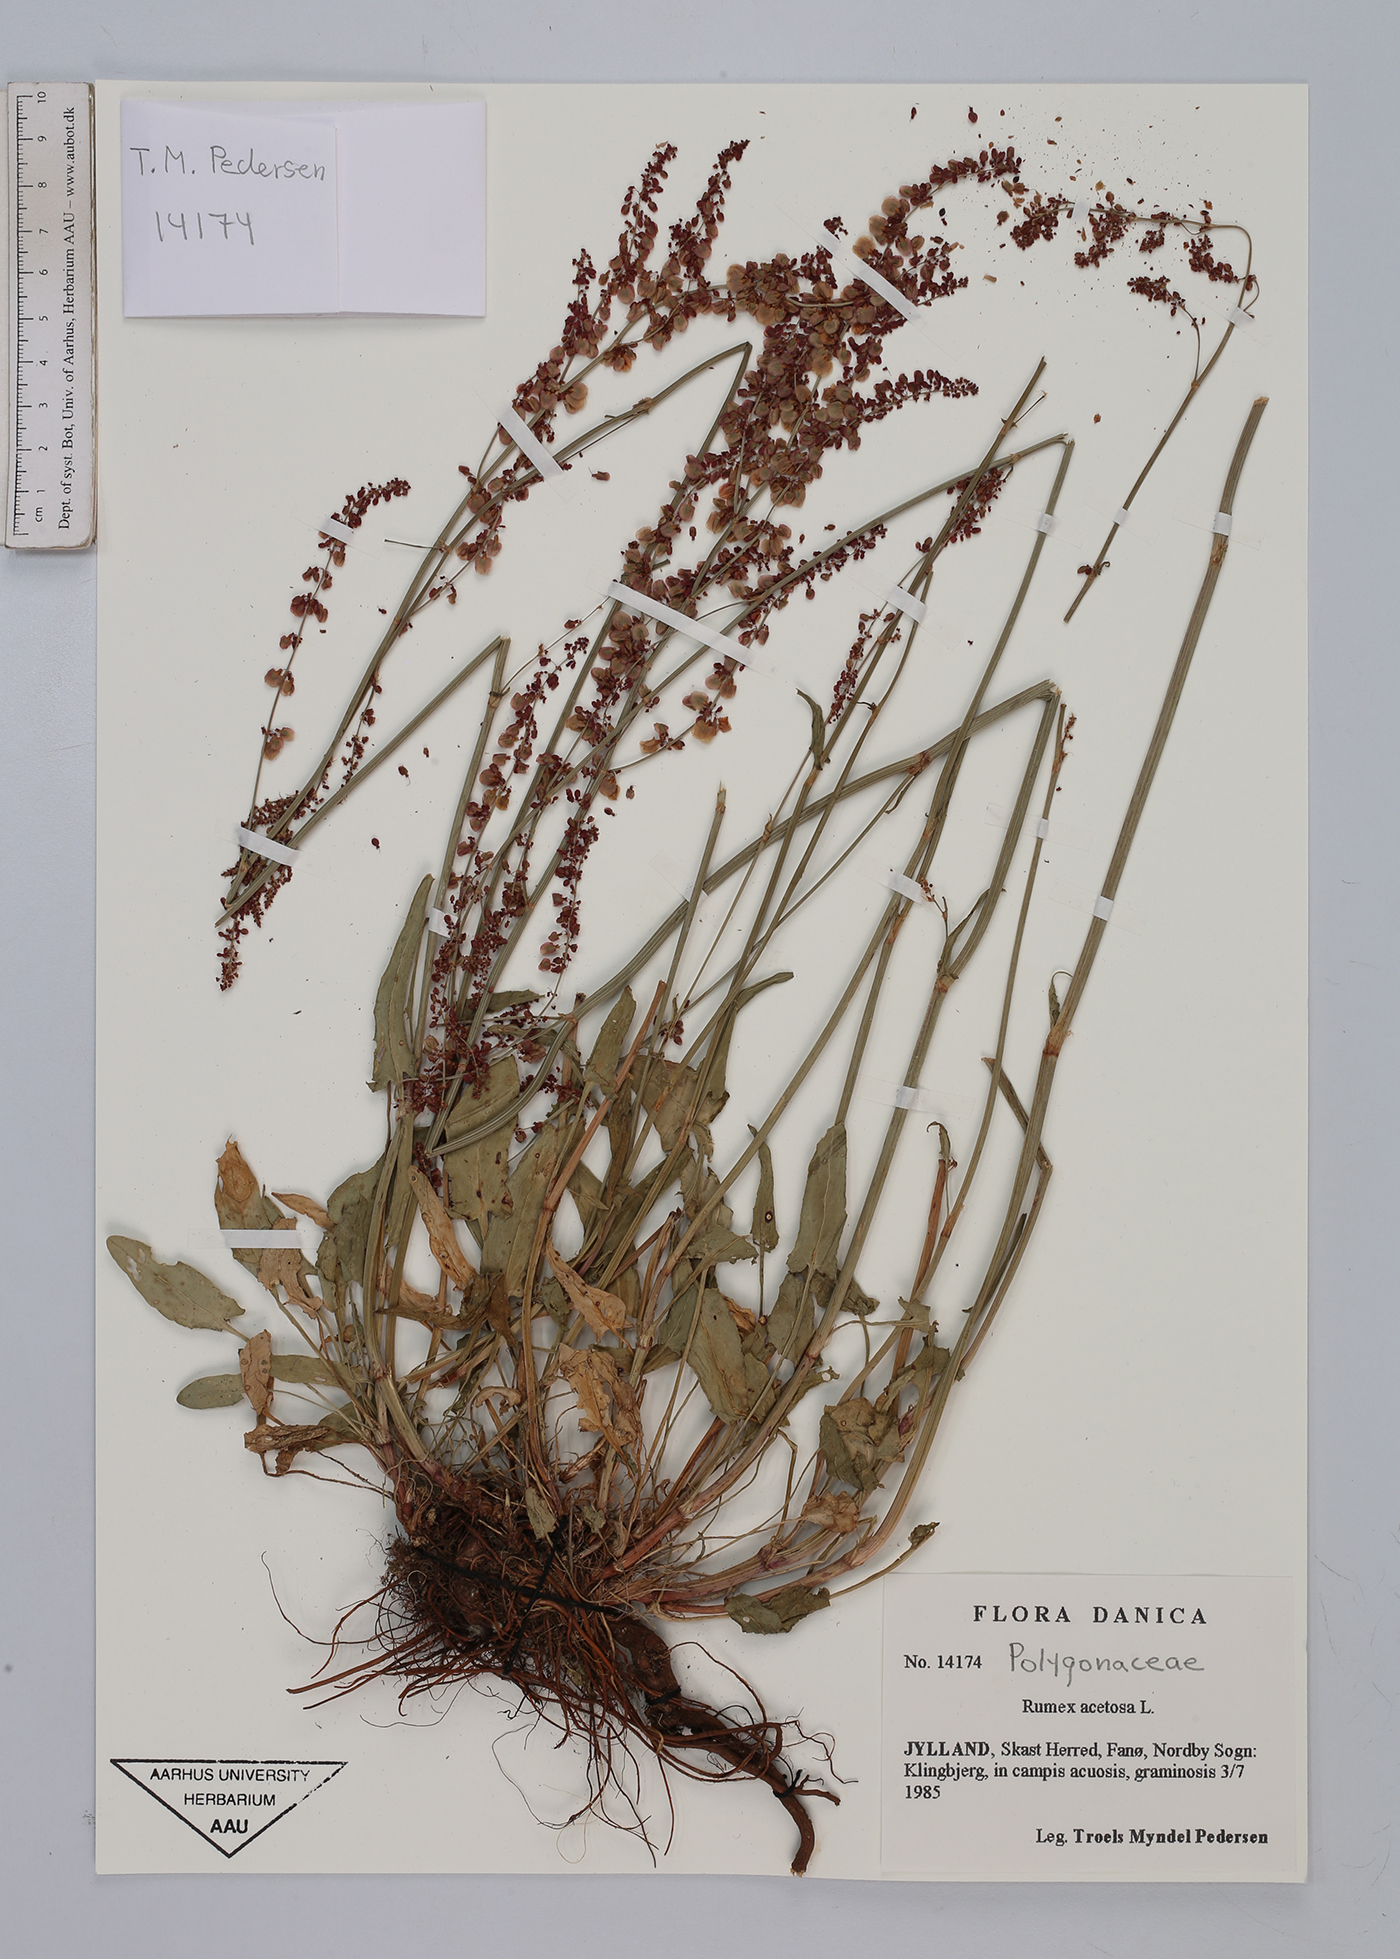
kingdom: Plantae
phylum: Tracheophyta
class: Magnoliopsida
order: Caryophyllales
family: Polygonaceae
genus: Rumex
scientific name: Rumex acetosa
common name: Garden sorrel
